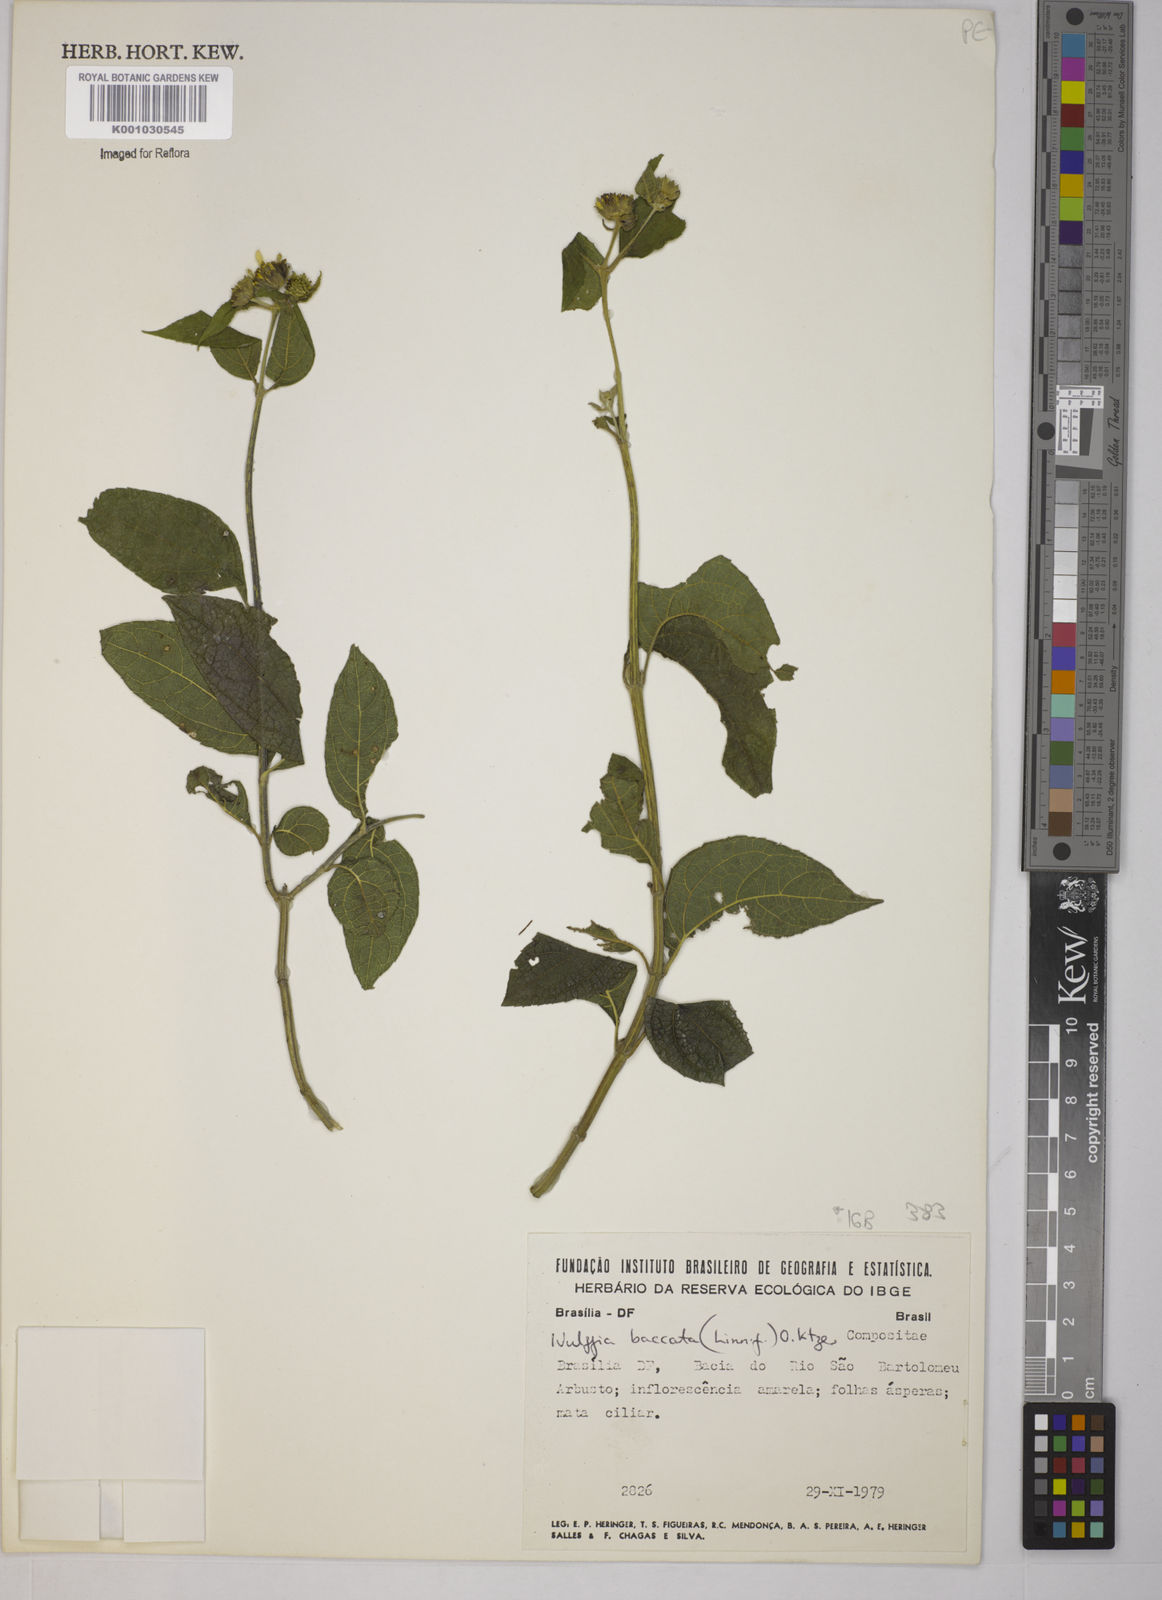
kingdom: Plantae
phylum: Tracheophyta
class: Magnoliopsida
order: Asterales
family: Asteraceae
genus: Tilesia
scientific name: Tilesia baccata
